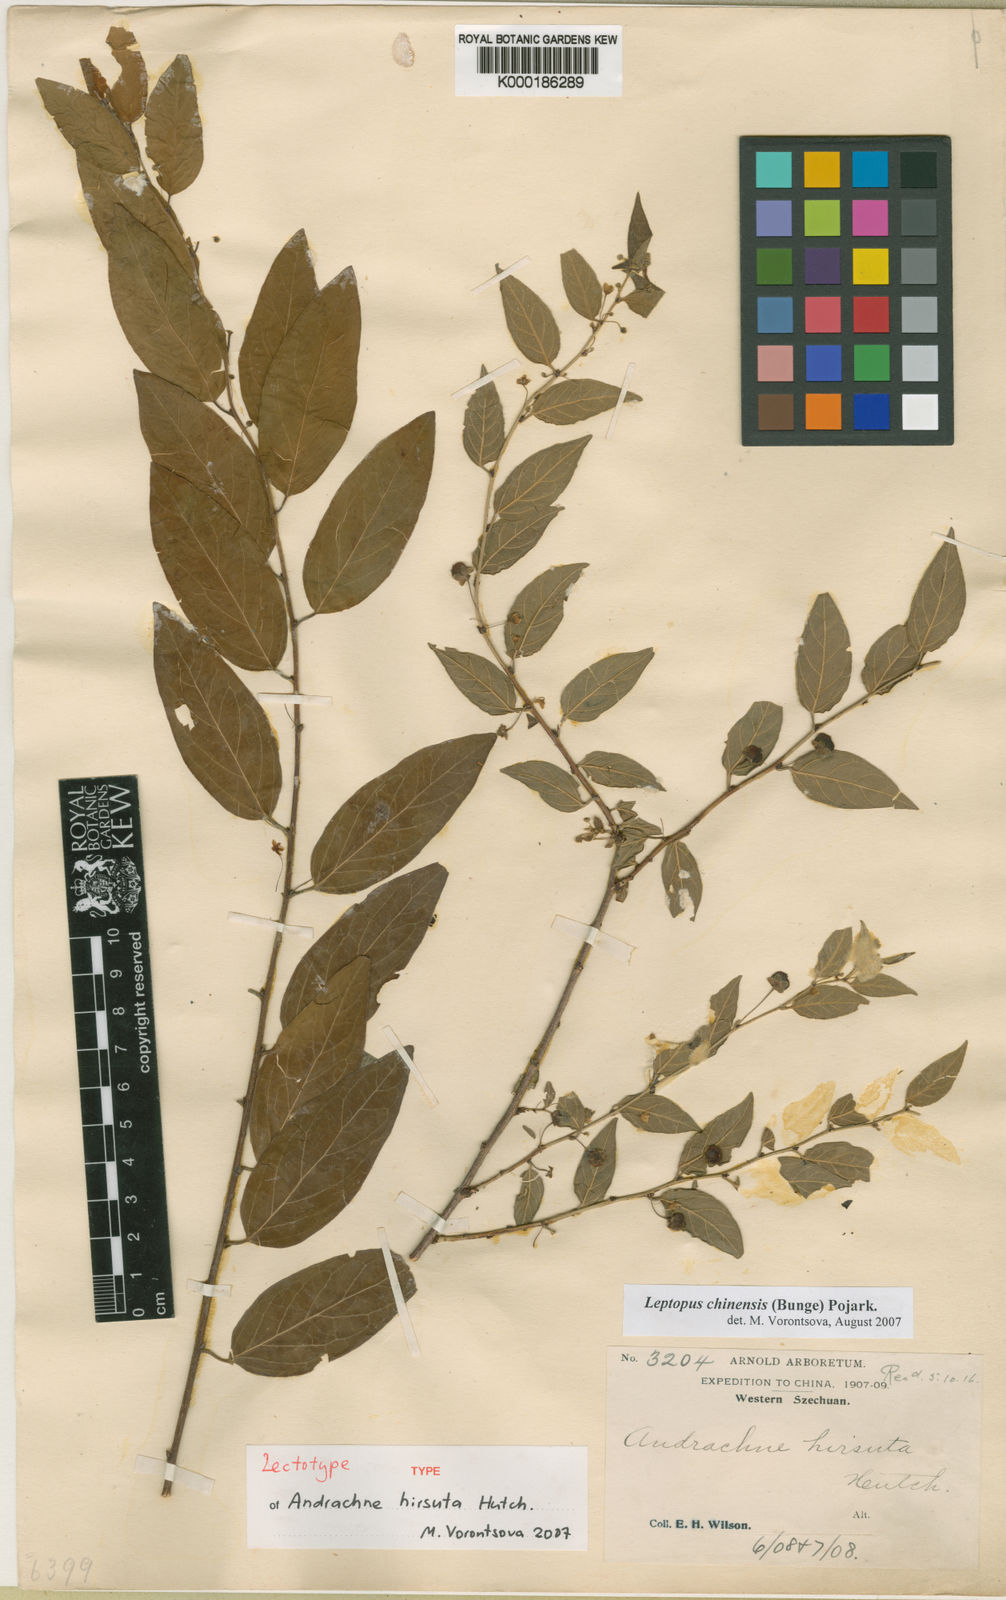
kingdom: Plantae
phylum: Tracheophyta
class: Magnoliopsida
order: Malpighiales
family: Phyllanthaceae
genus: Leptopus
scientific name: Leptopus chinensis
